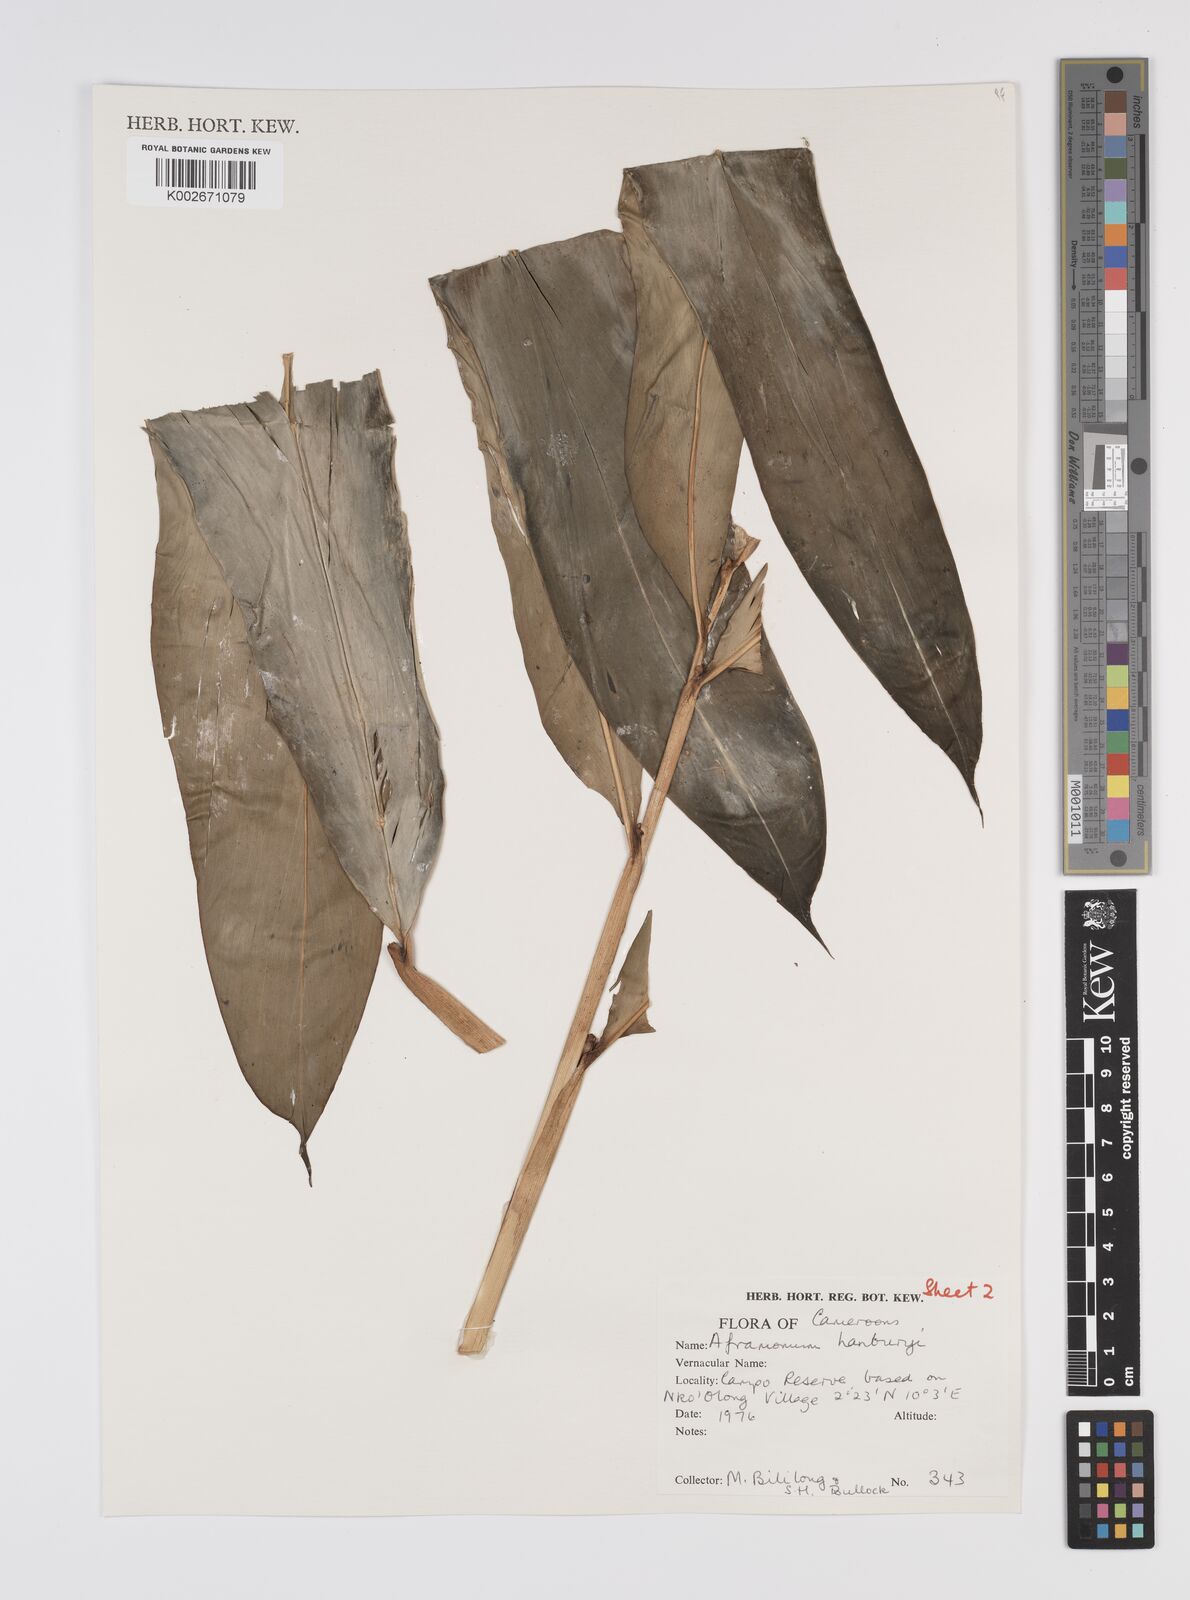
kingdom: Plantae
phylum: Tracheophyta
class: Liliopsida
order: Zingiberales
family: Zingiberaceae
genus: Aframomum
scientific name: Aframomum daniellii
